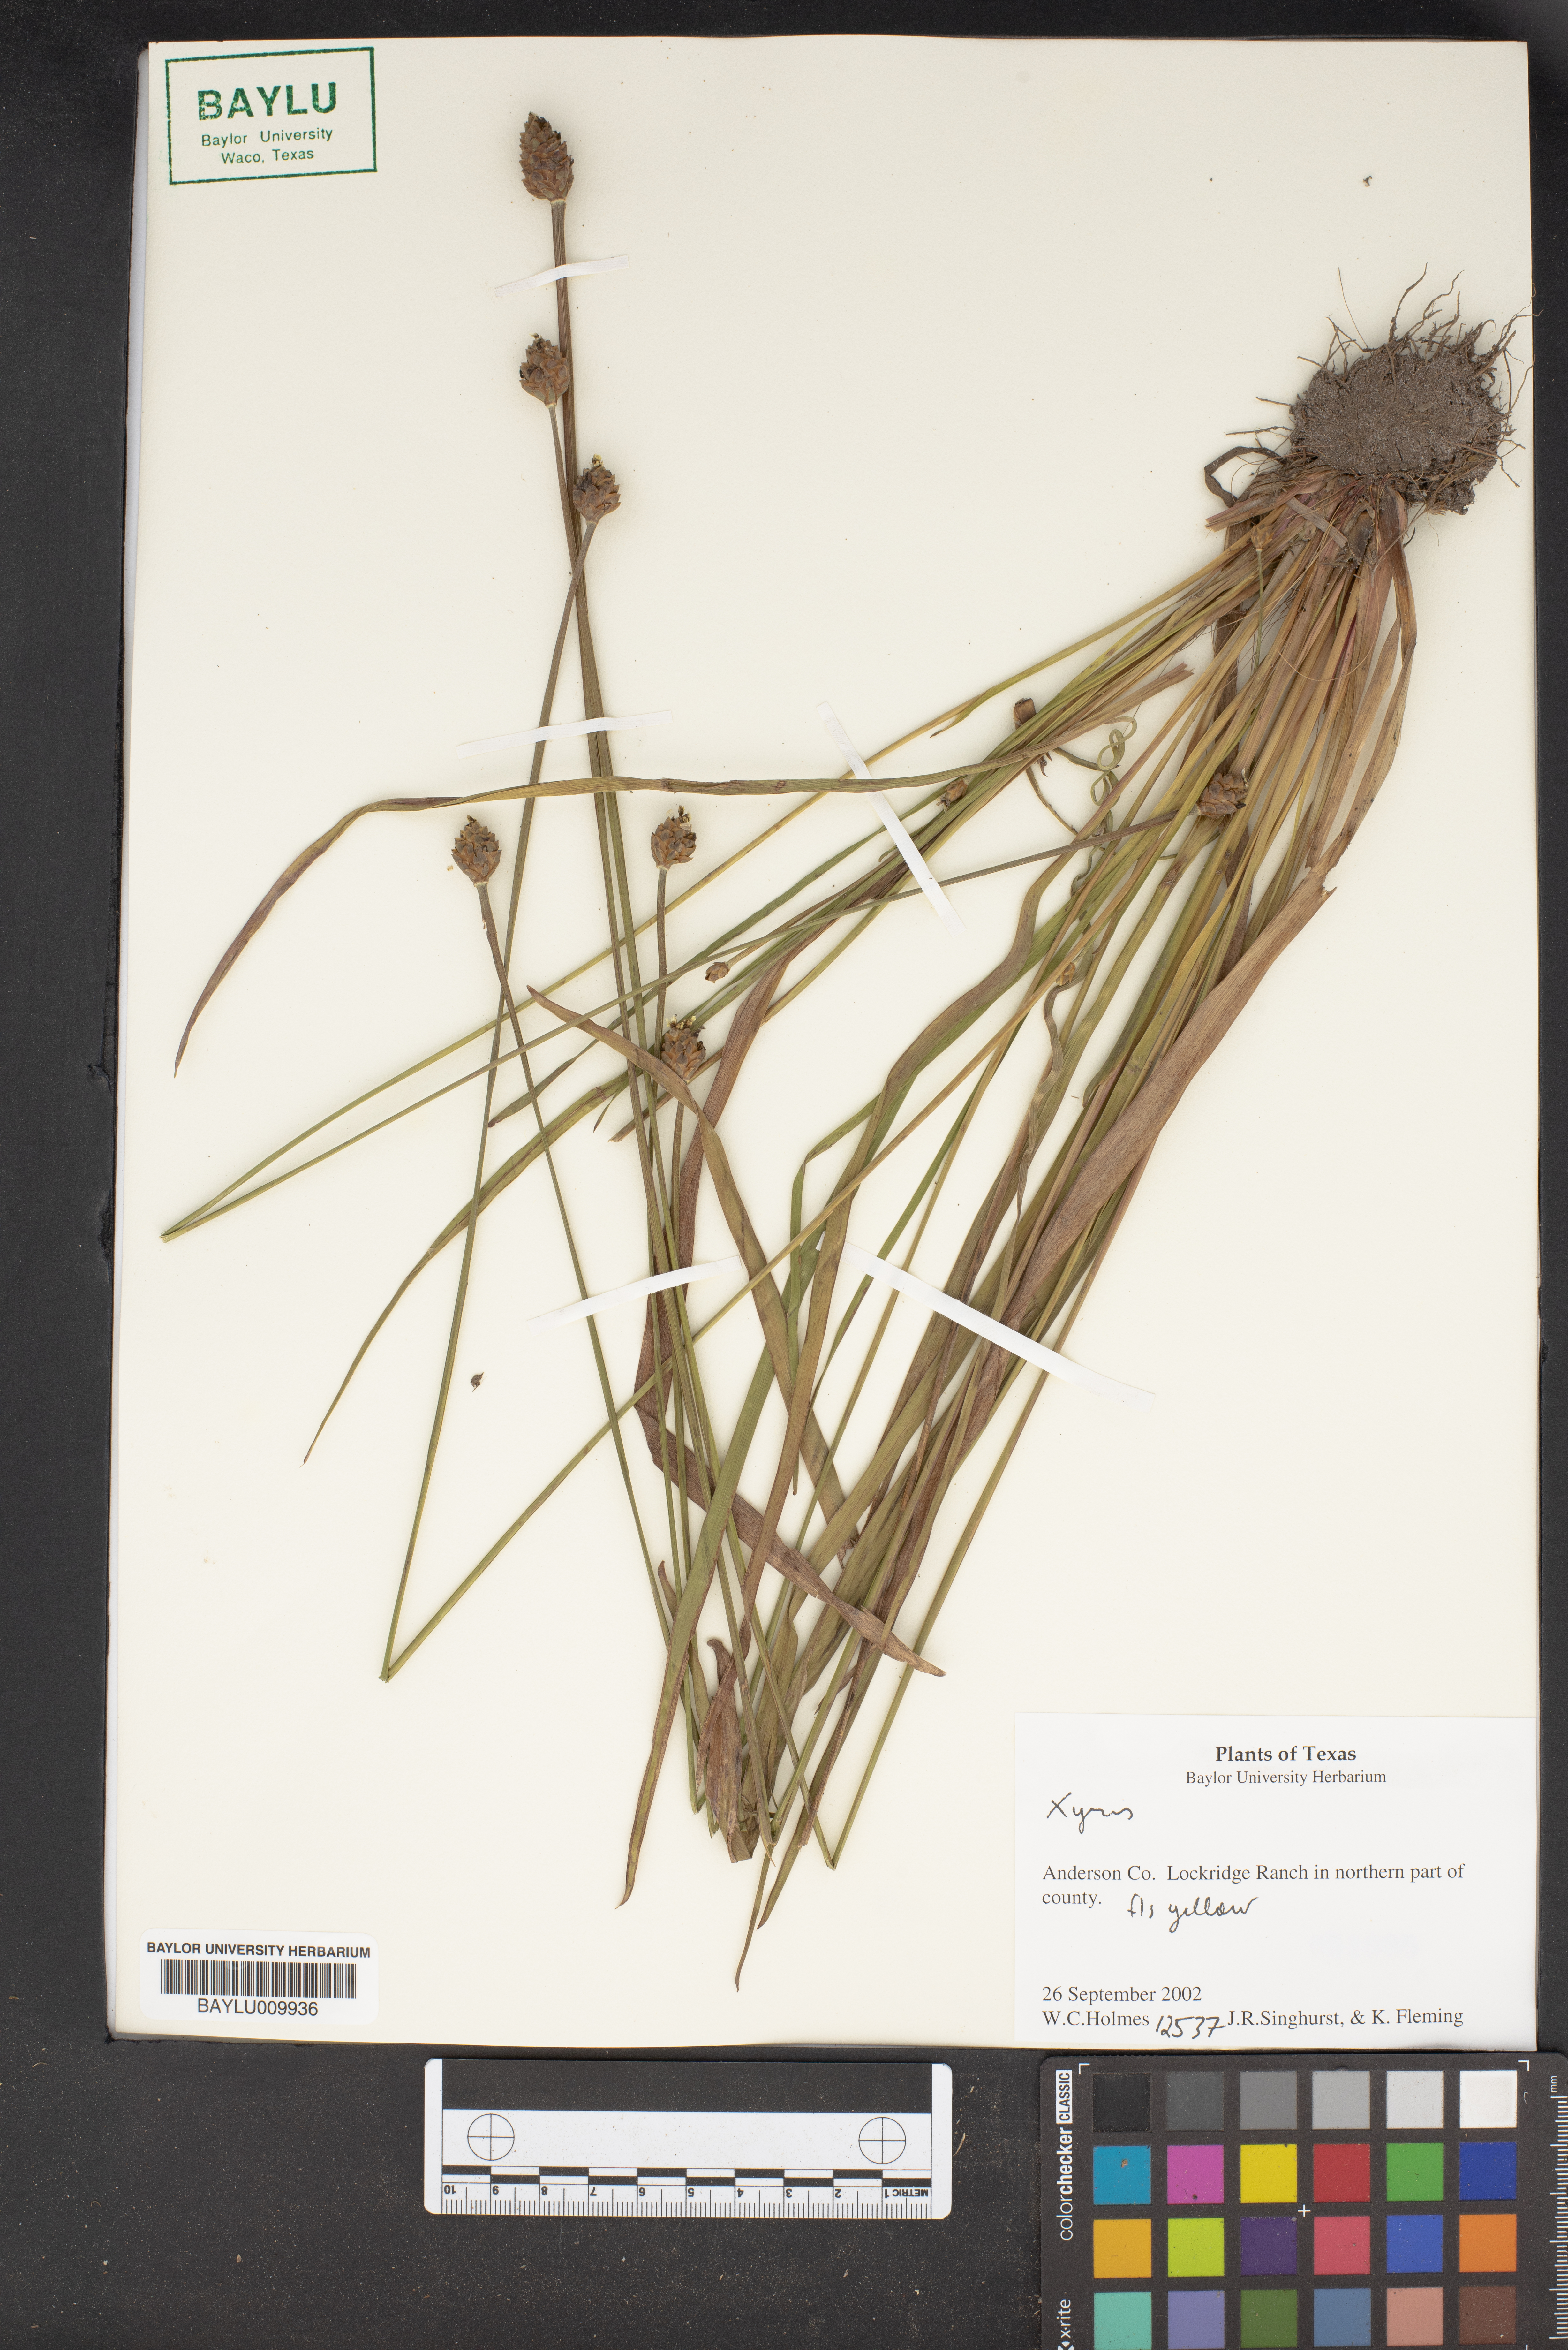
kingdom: Plantae
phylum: Tracheophyta
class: Liliopsida
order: Poales
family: Xyridaceae
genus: Xyris
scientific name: Xyris
